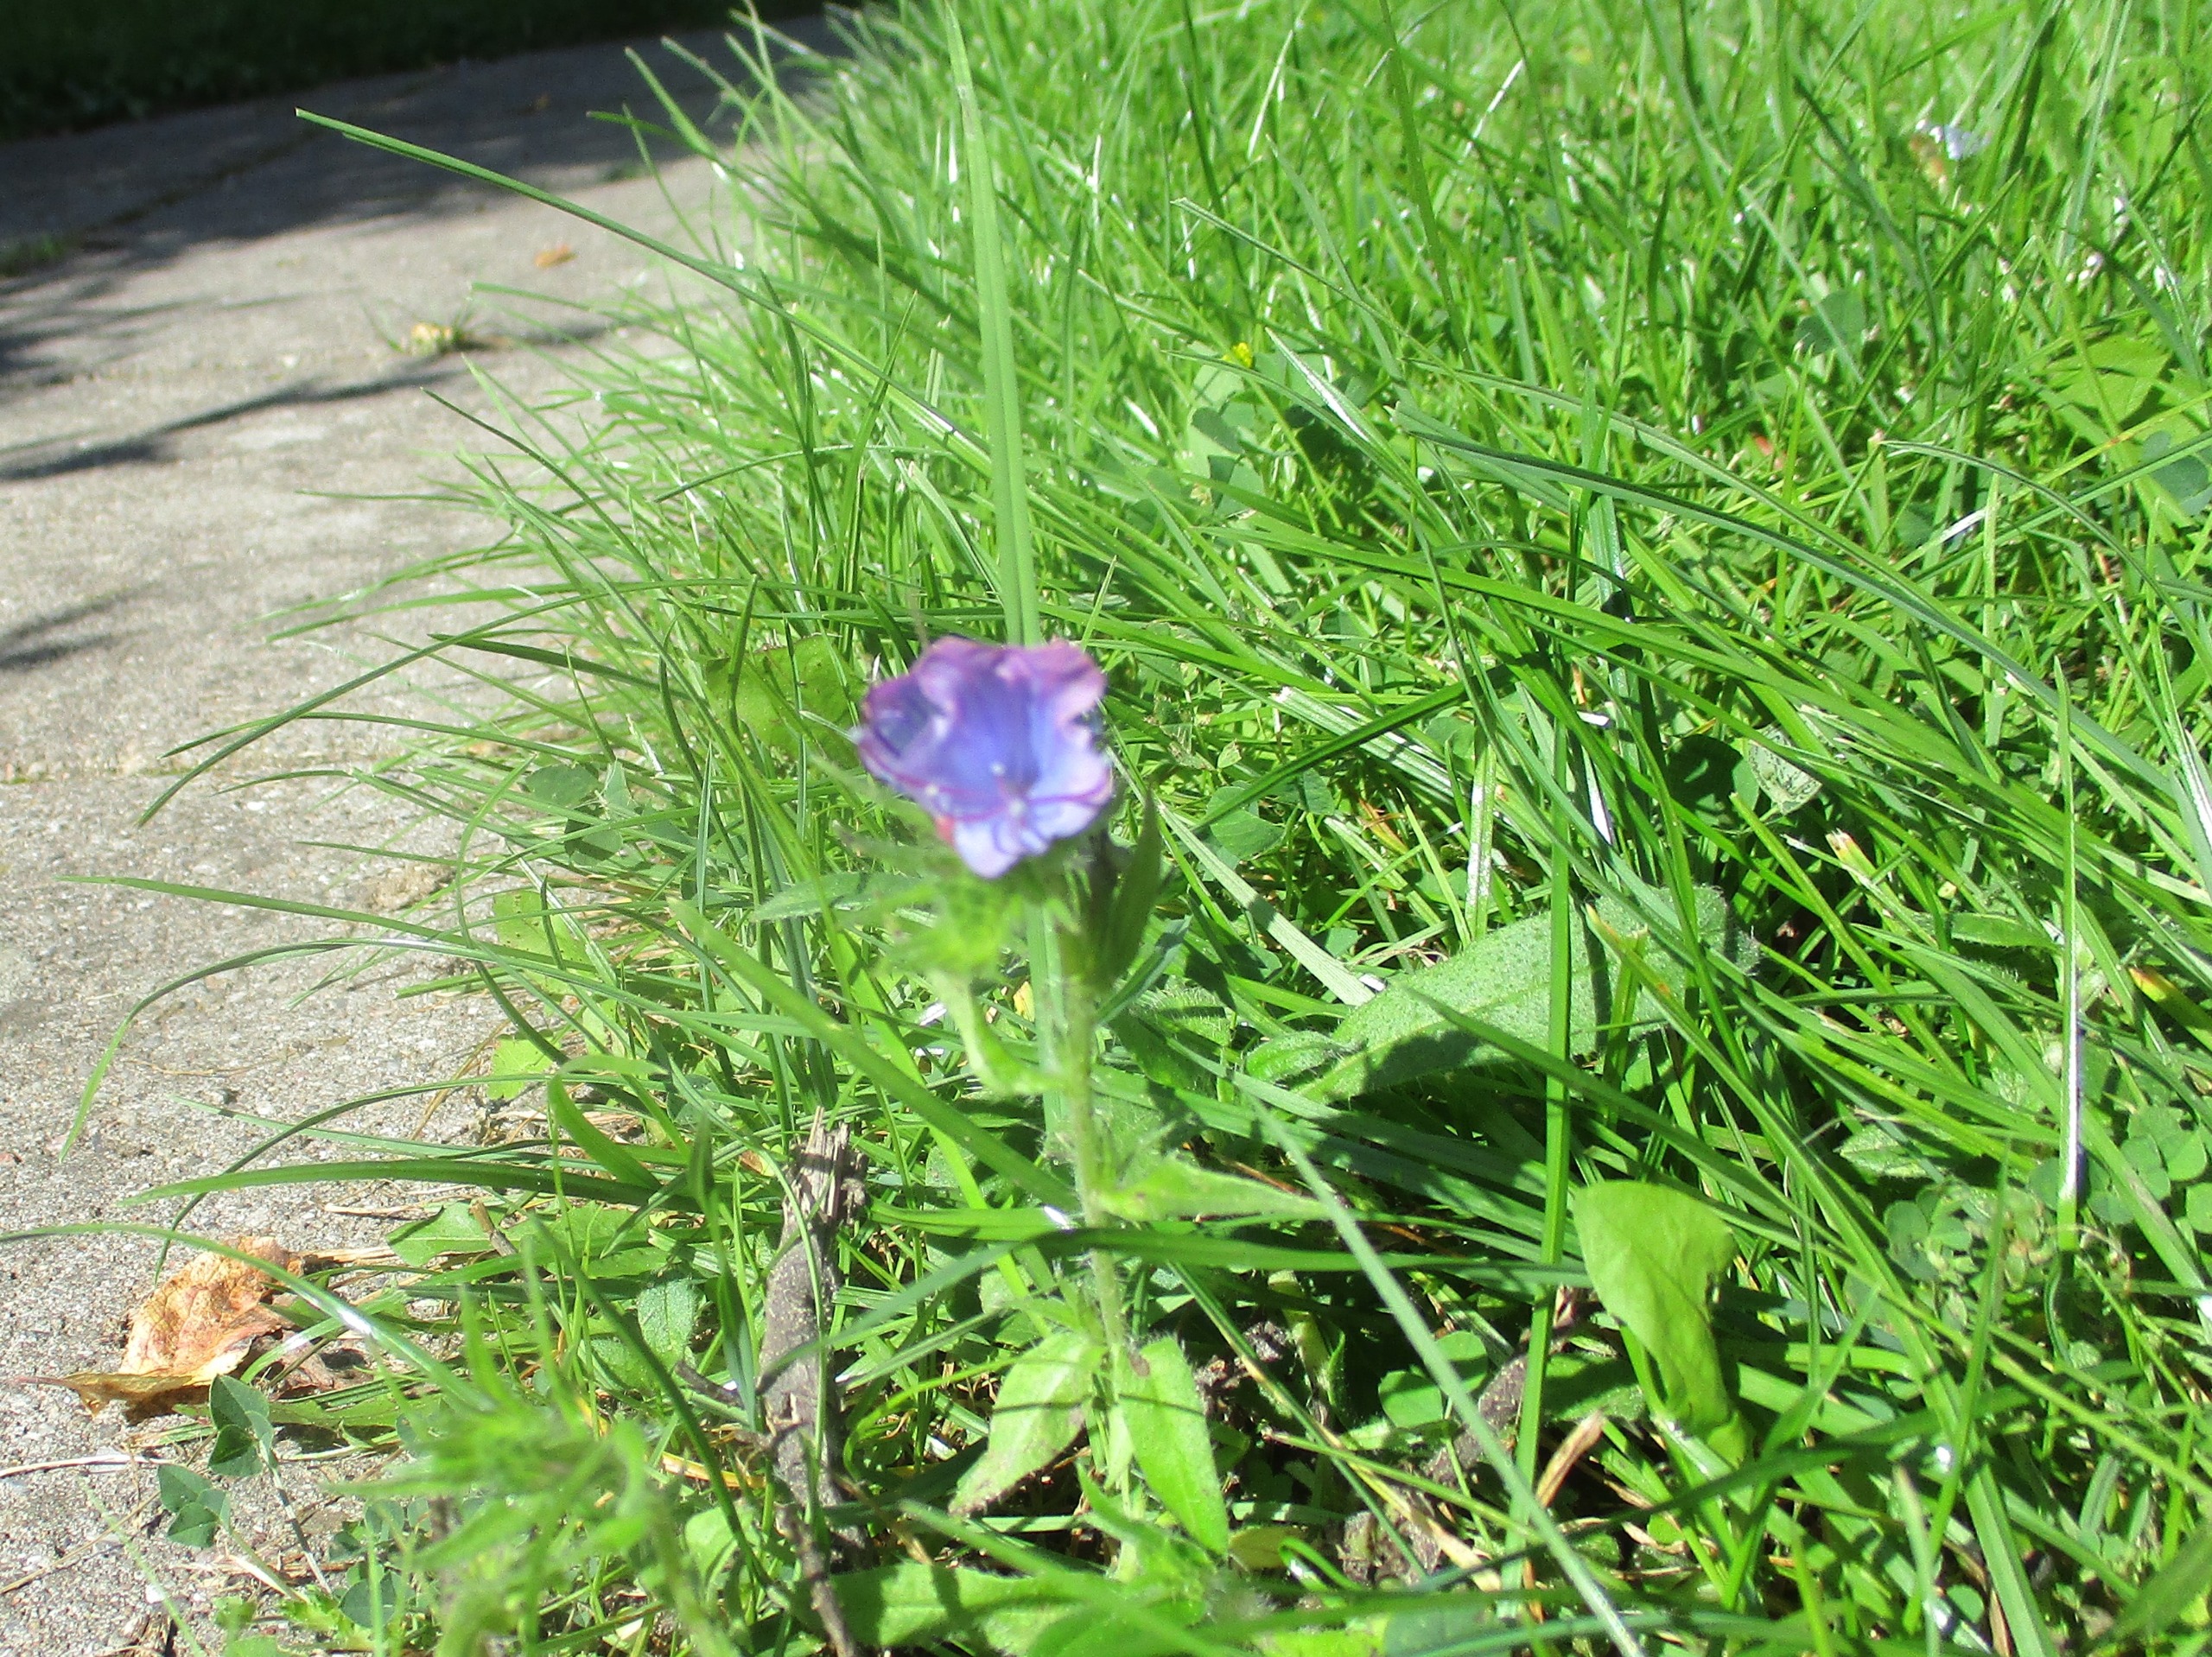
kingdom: Plantae
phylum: Tracheophyta
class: Magnoliopsida
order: Boraginales
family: Boraginaceae
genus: Echium
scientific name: Echium
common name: Slangehovedslægten
